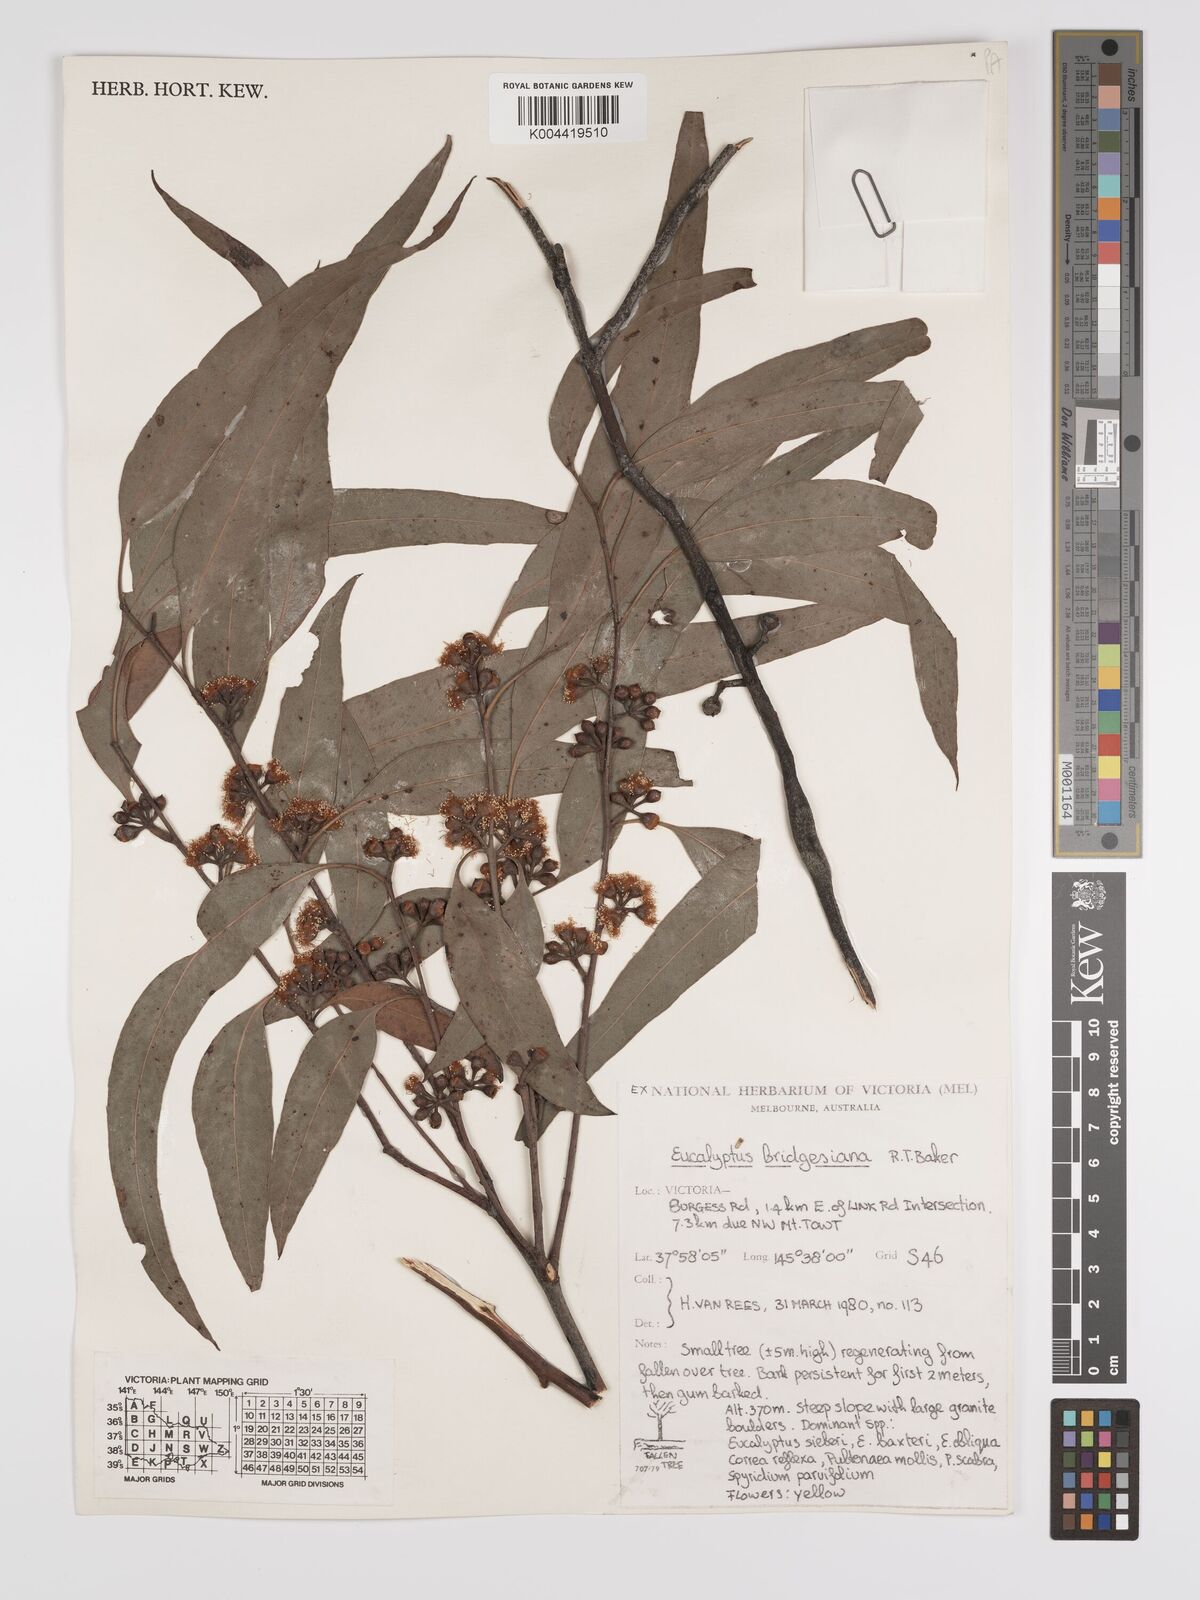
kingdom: Plantae
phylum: Tracheophyta
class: Magnoliopsida
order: Myrtales
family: Myrtaceae
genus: Eucalyptus
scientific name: Eucalyptus ovata
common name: Black-gum
